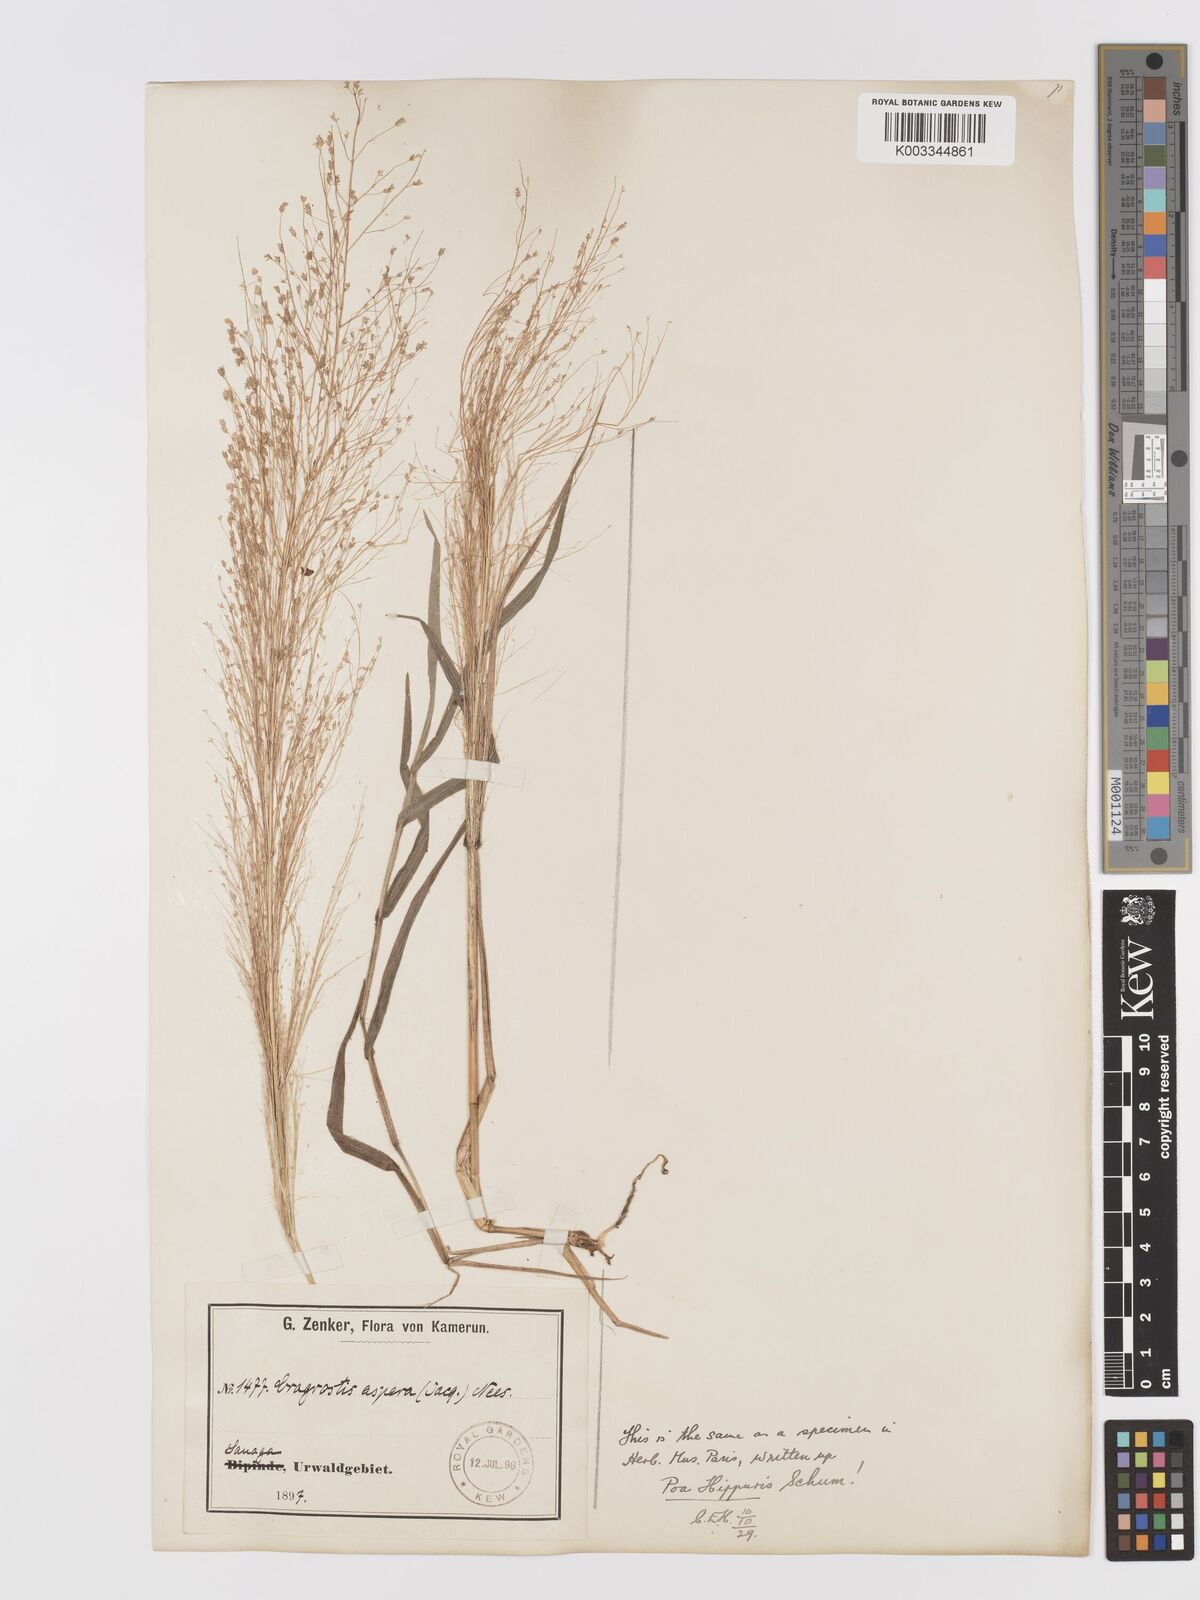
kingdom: Plantae
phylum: Tracheophyta
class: Liliopsida
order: Poales
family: Poaceae
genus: Eragrostis
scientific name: Eragrostis aspera
